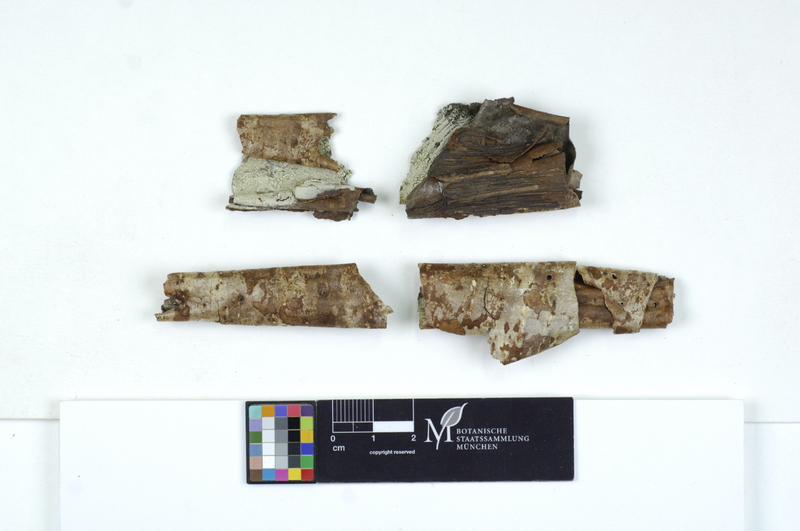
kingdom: Plantae
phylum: Tracheophyta
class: Magnoliopsida
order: Fagales
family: Betulaceae
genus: Corylus
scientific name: Corylus
